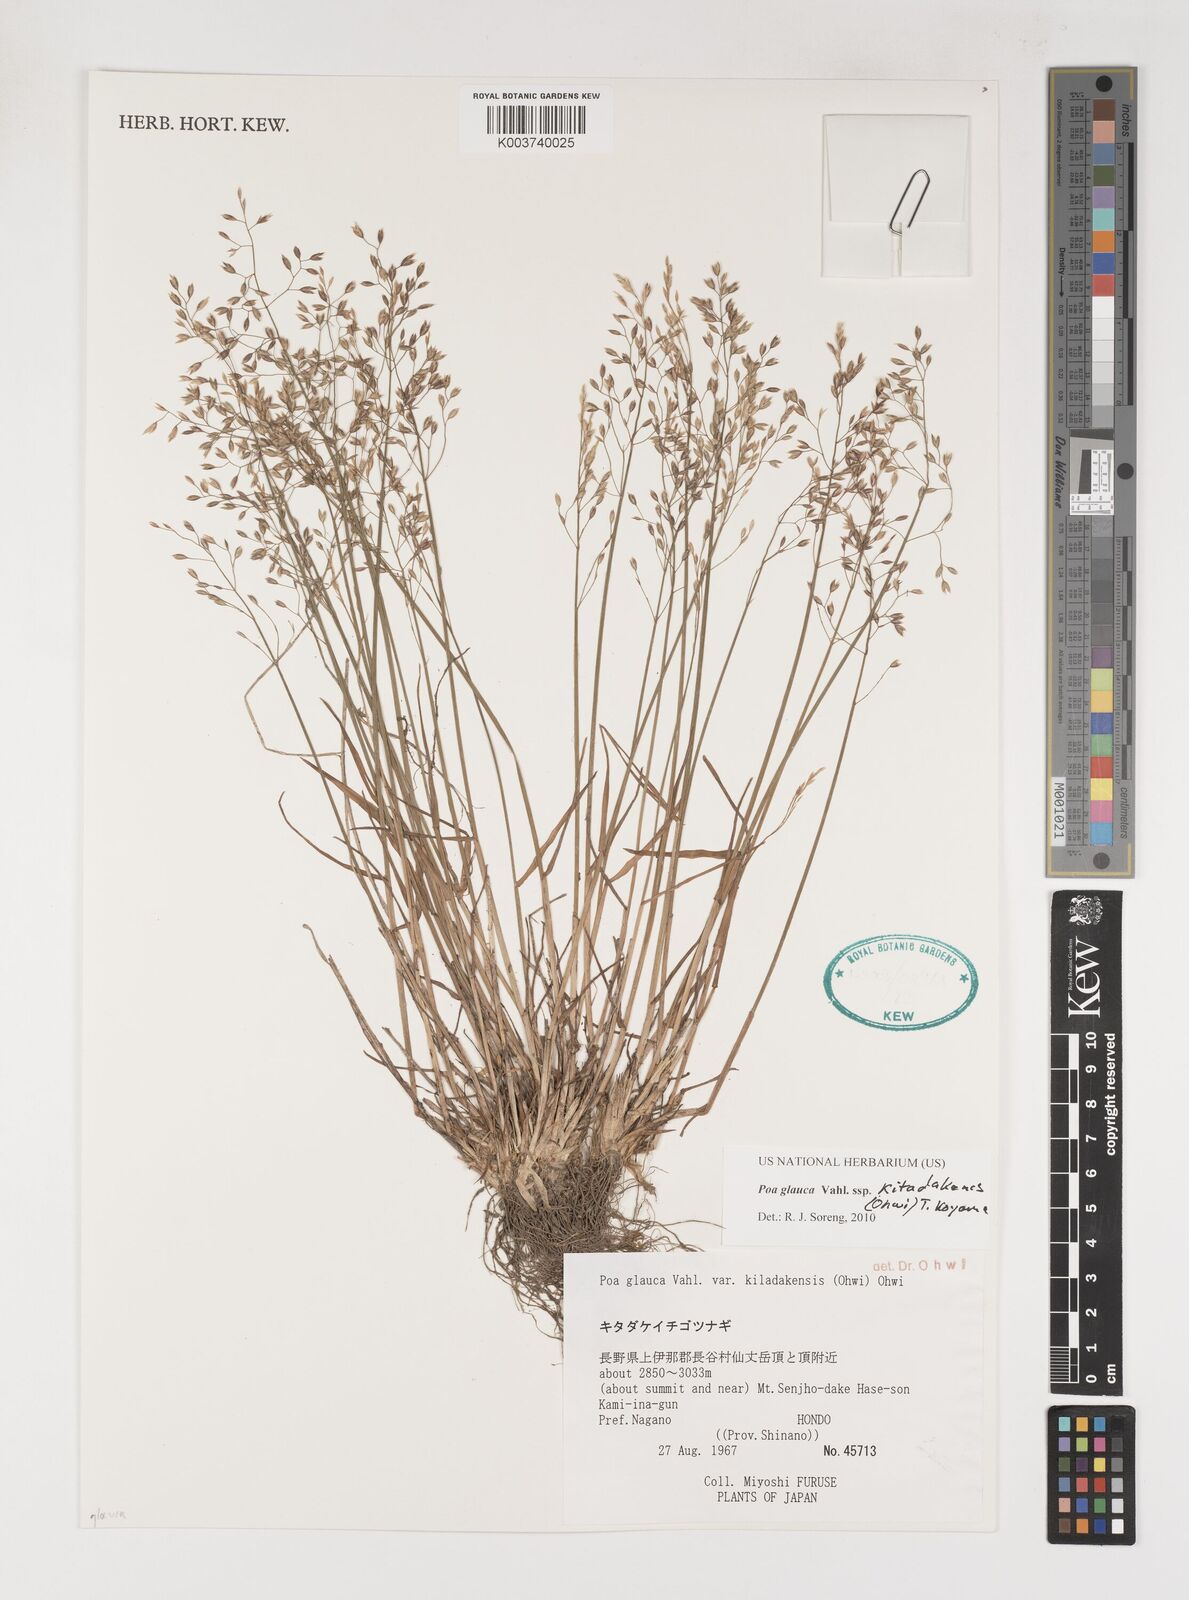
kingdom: Plantae
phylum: Tracheophyta
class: Liliopsida
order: Poales
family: Poaceae
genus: Poa
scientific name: Poa glauca
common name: Glaucous bluegrass
